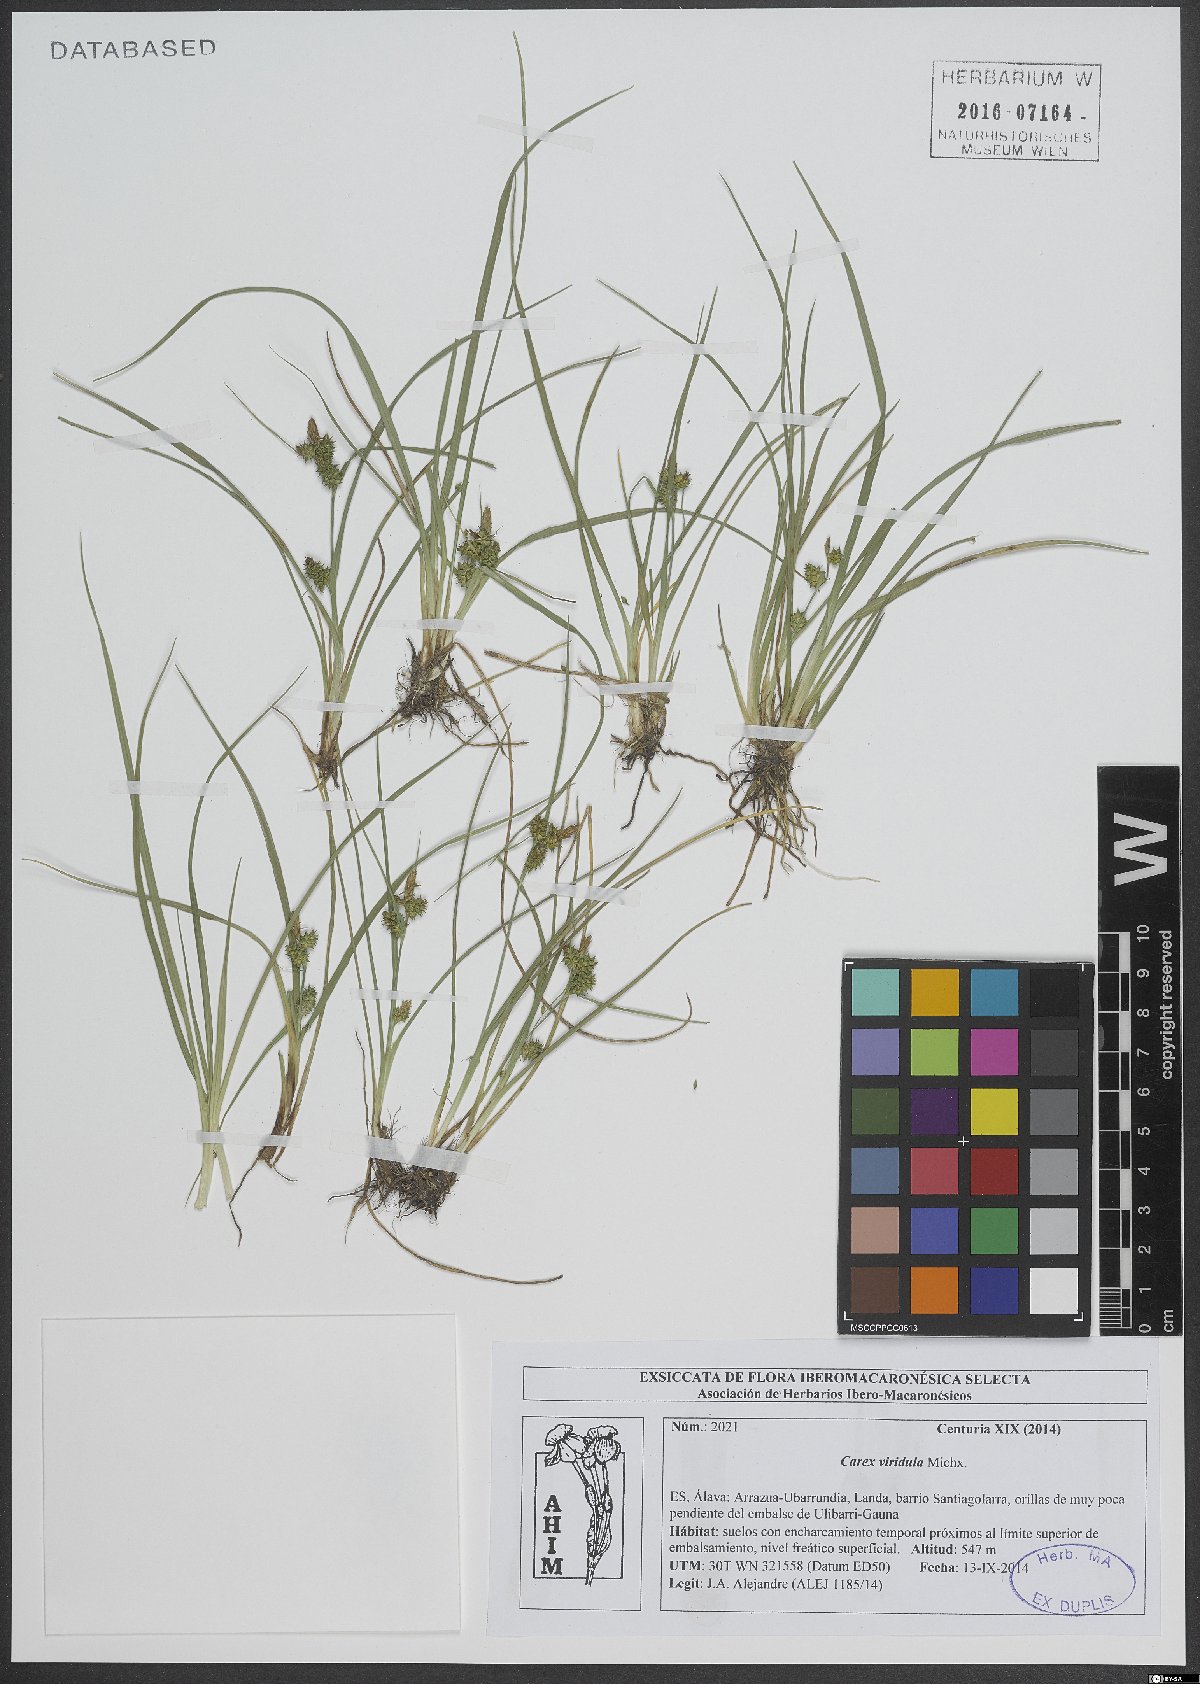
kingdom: Plantae
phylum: Tracheophyta
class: Liliopsida
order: Poales
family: Cyperaceae
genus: Carex
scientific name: Carex oederi
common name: Common & small-fruited yellow-sedge
